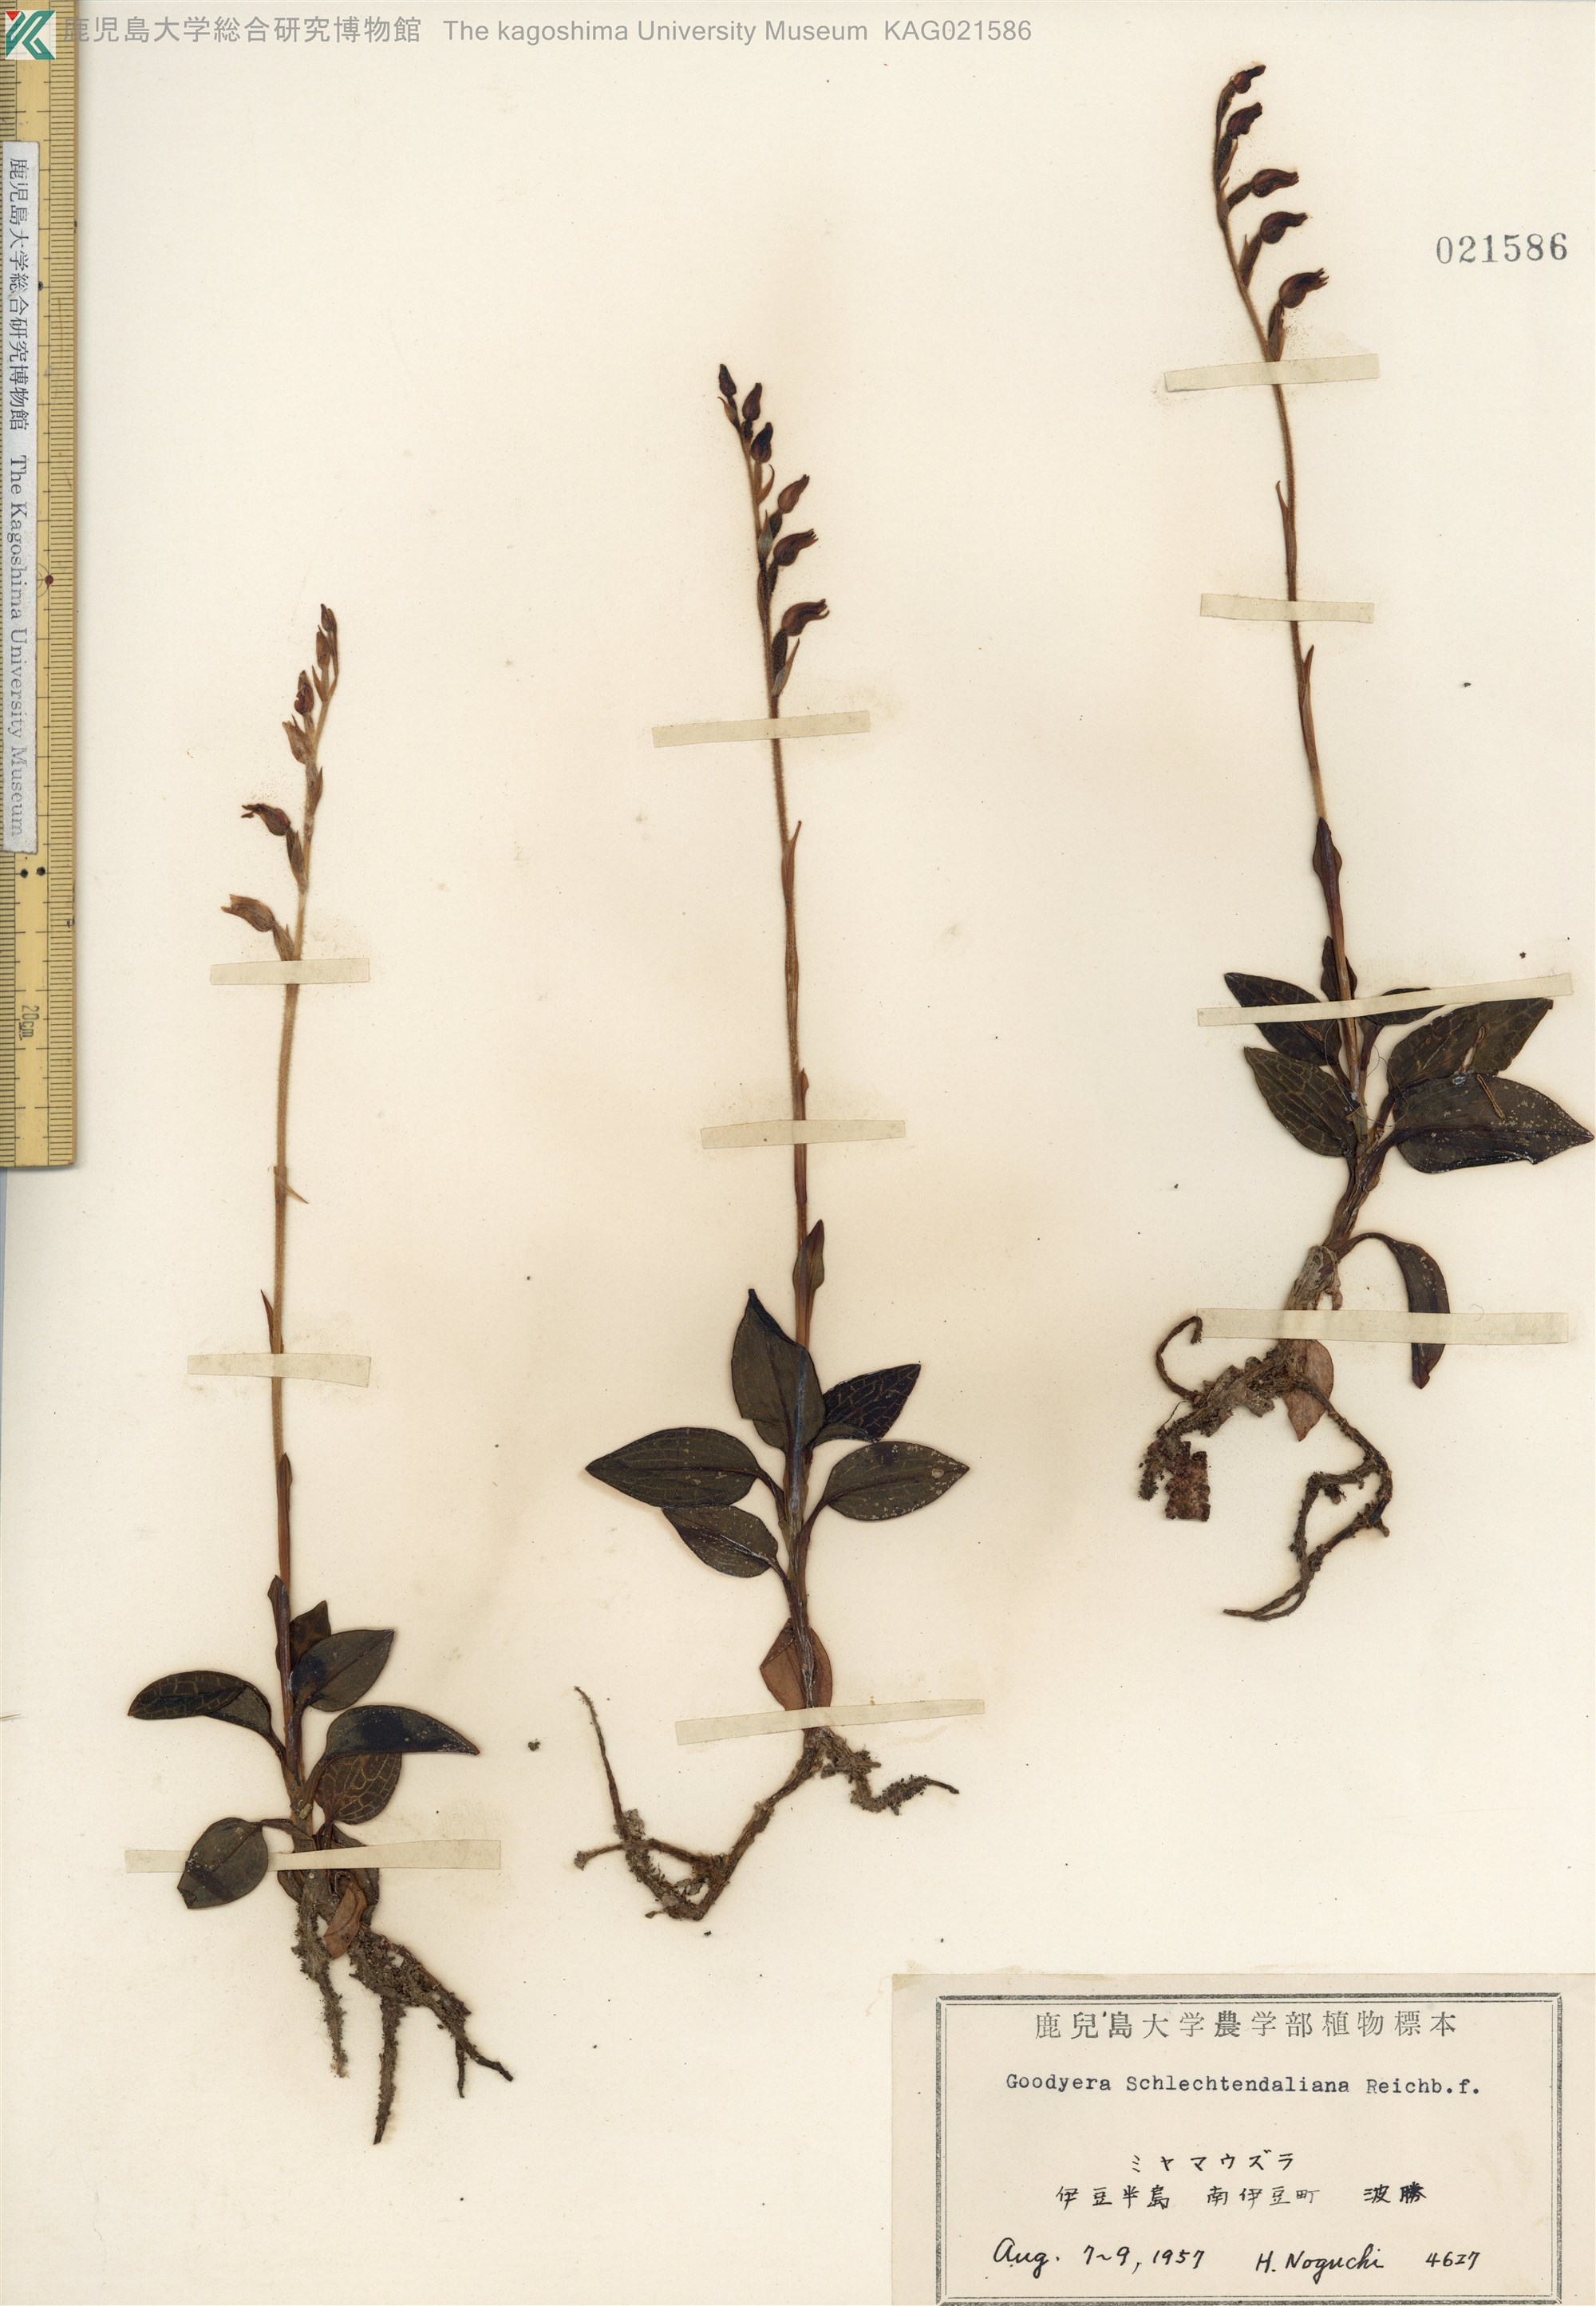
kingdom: Plantae
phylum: Tracheophyta
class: Liliopsida
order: Asparagales
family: Orchidaceae
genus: Goodyera
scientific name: Goodyera schlechtendaliana
